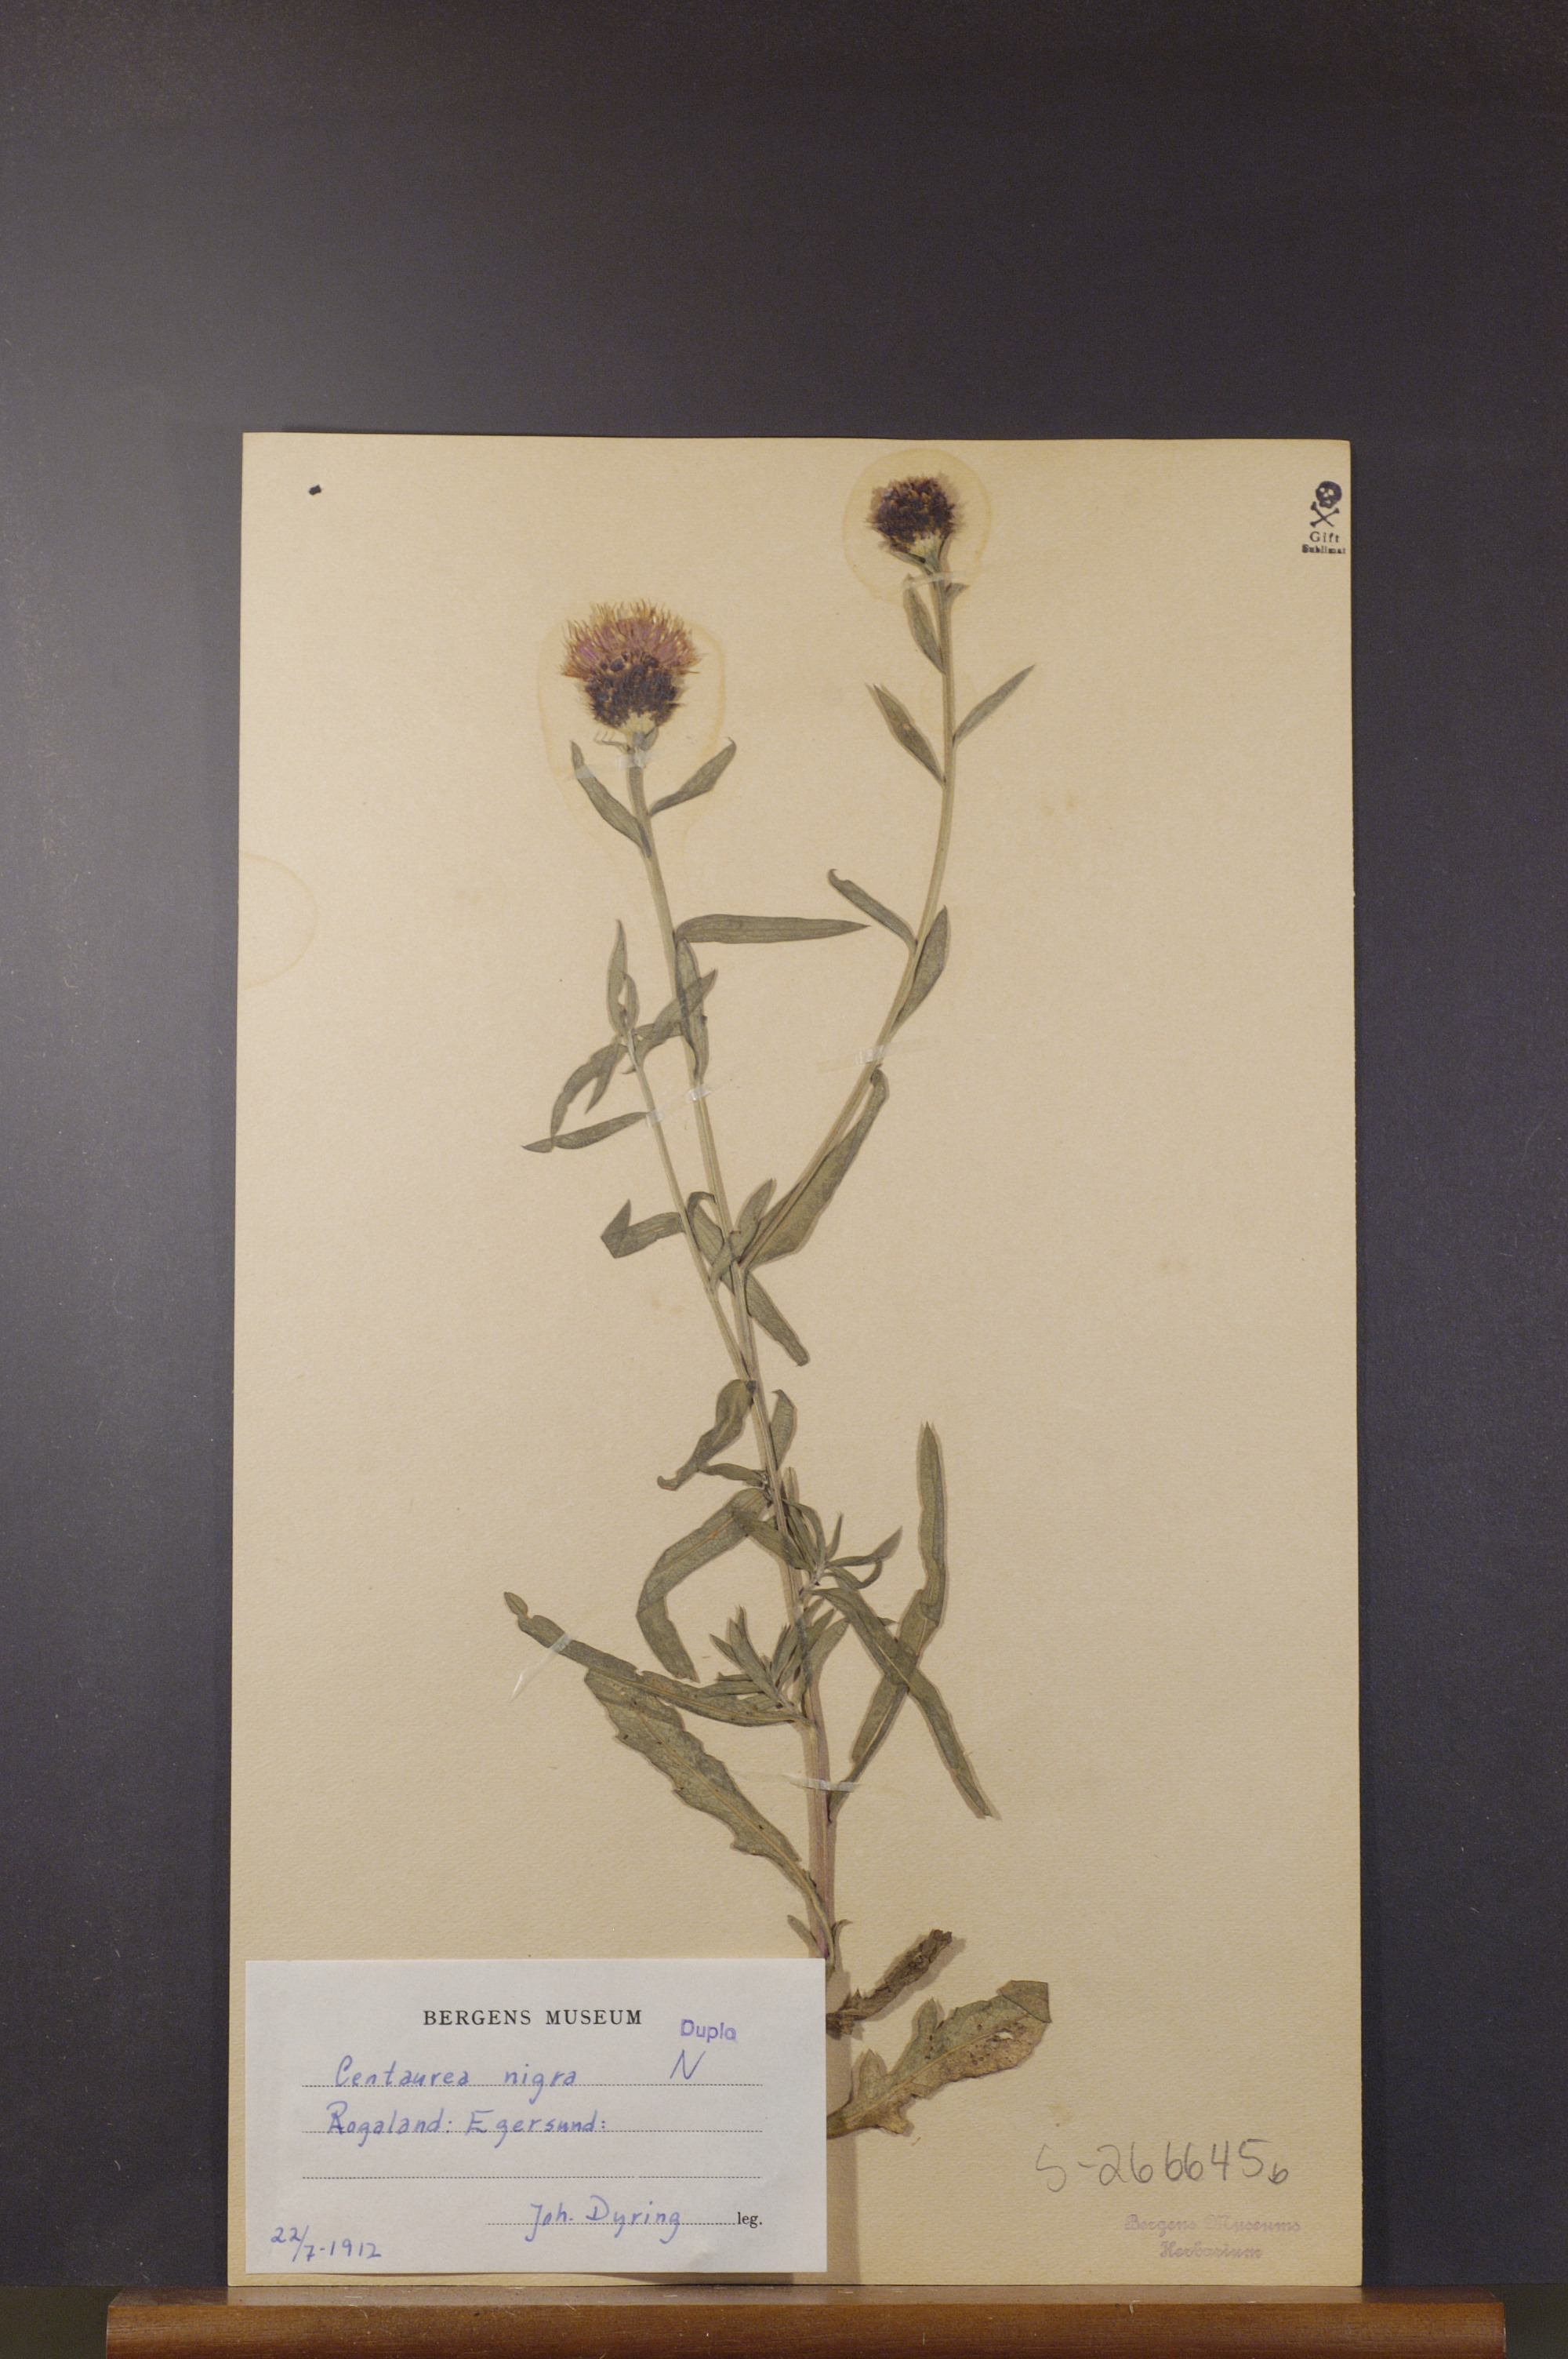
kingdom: Plantae
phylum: Tracheophyta
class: Magnoliopsida
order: Asterales
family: Asteraceae
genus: Centaurea
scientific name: Centaurea nigra
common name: Lesser knapweed
